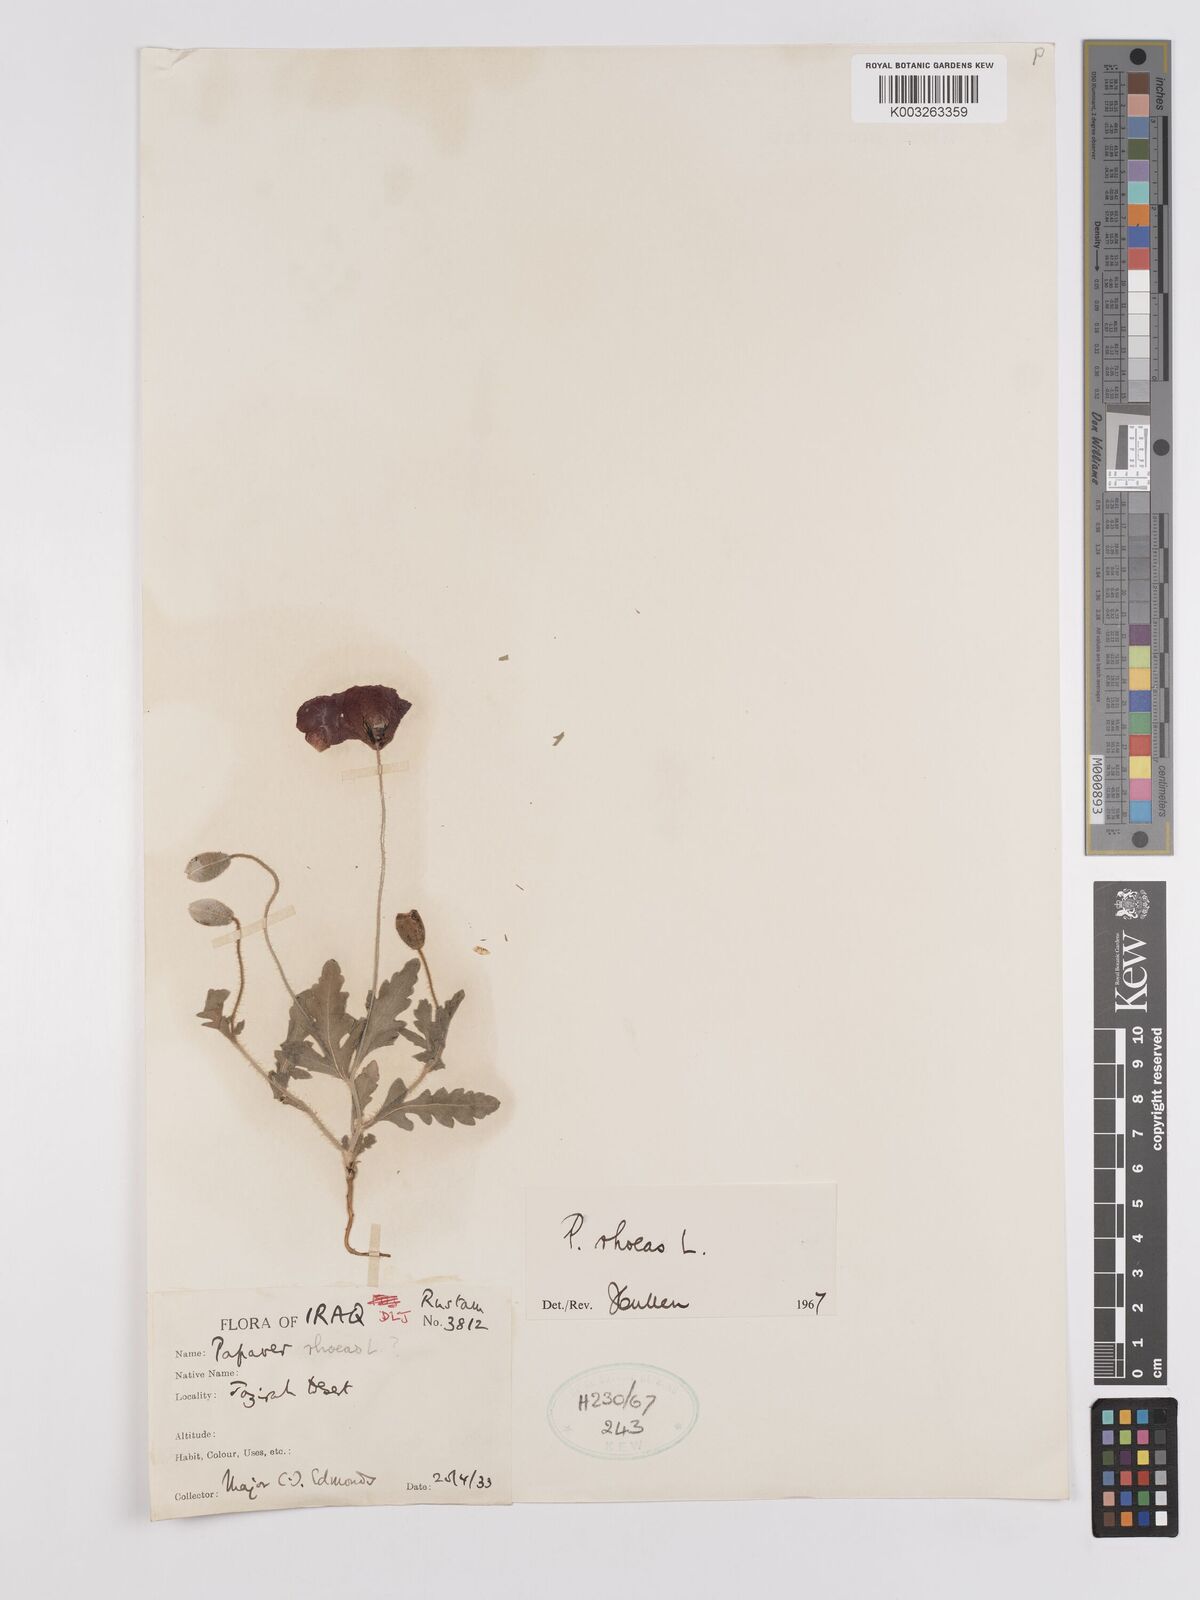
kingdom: Plantae
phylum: Tracheophyta
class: Magnoliopsida
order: Ranunculales
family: Papaveraceae
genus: Papaver
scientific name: Papaver rhoeas
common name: Corn poppy
